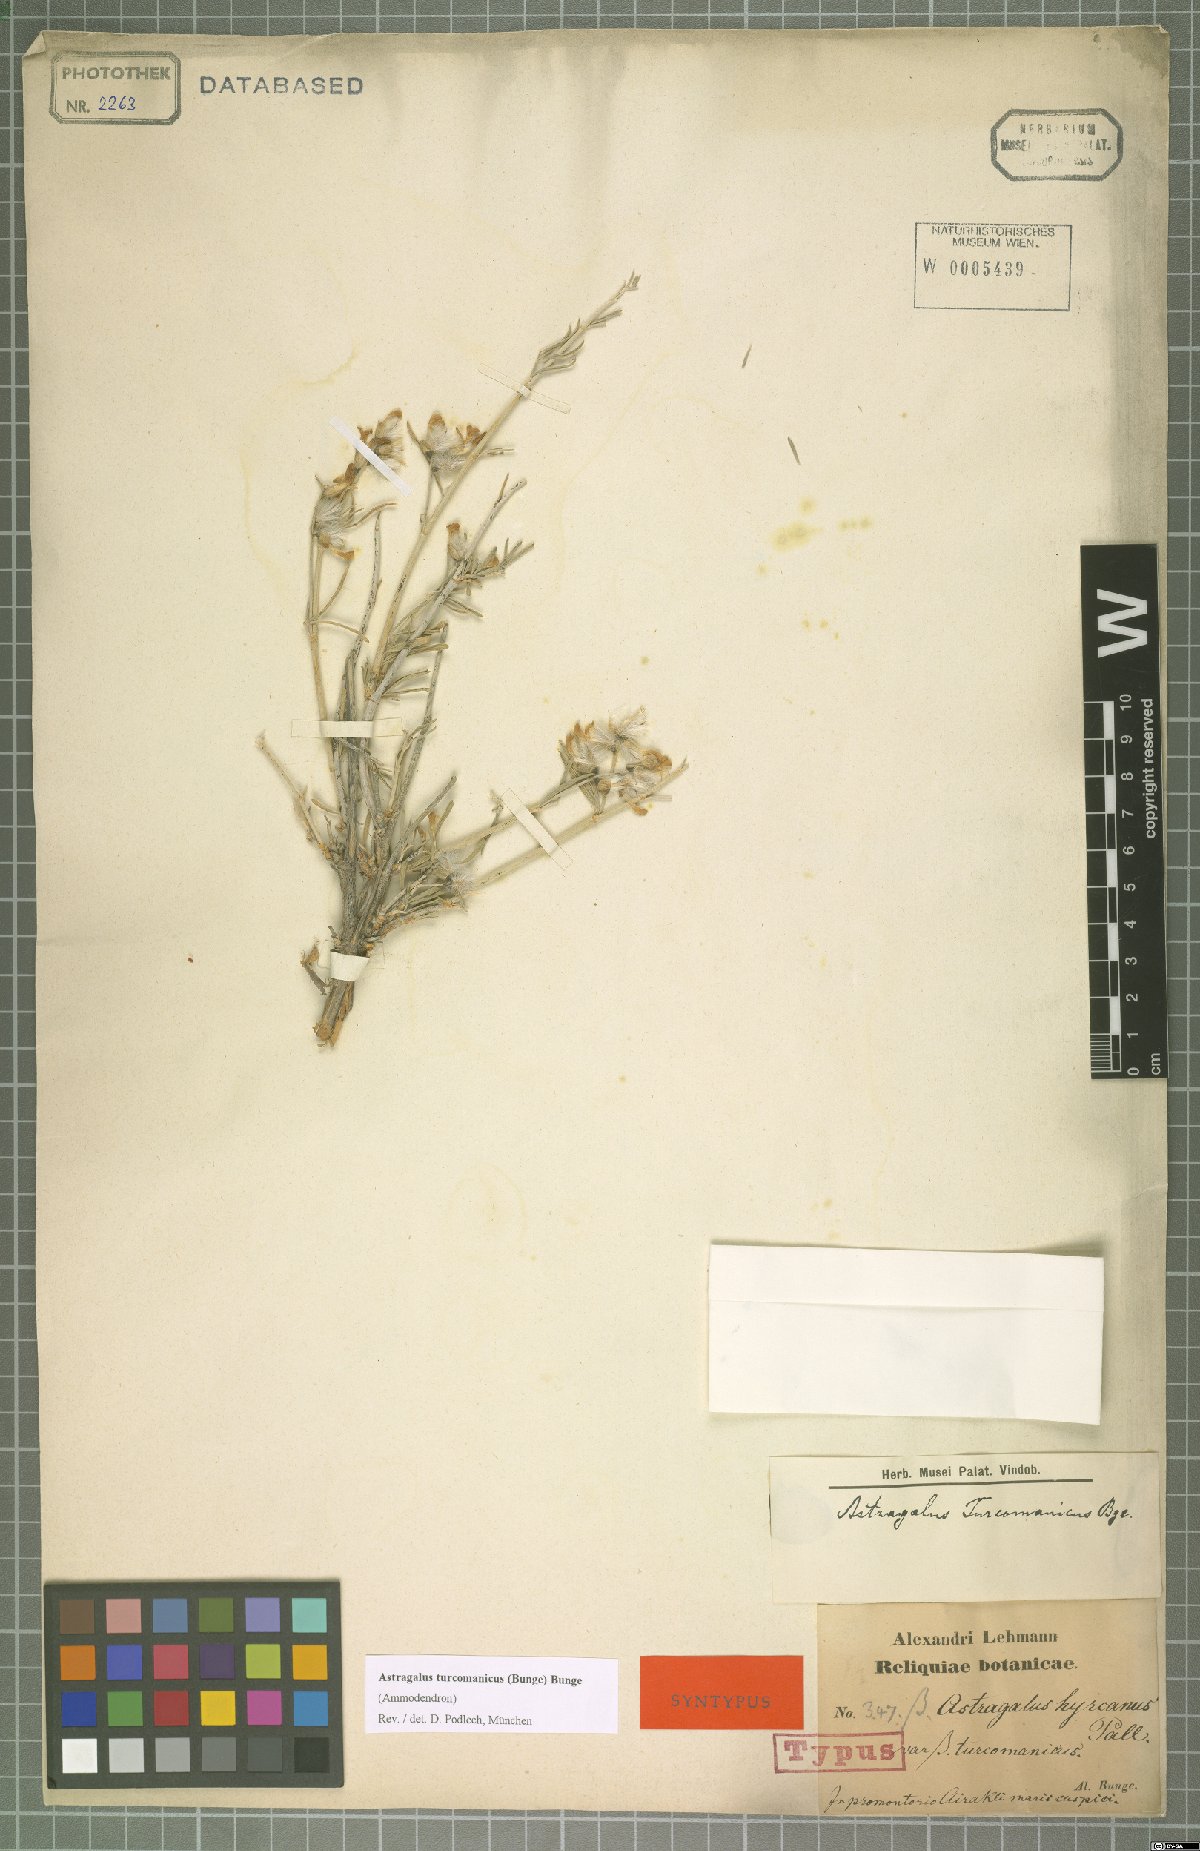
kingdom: Plantae
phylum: Tracheophyta
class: Magnoliopsida
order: Fabales
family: Fabaceae
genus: Astragalus
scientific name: Astragalus turcomanicus
